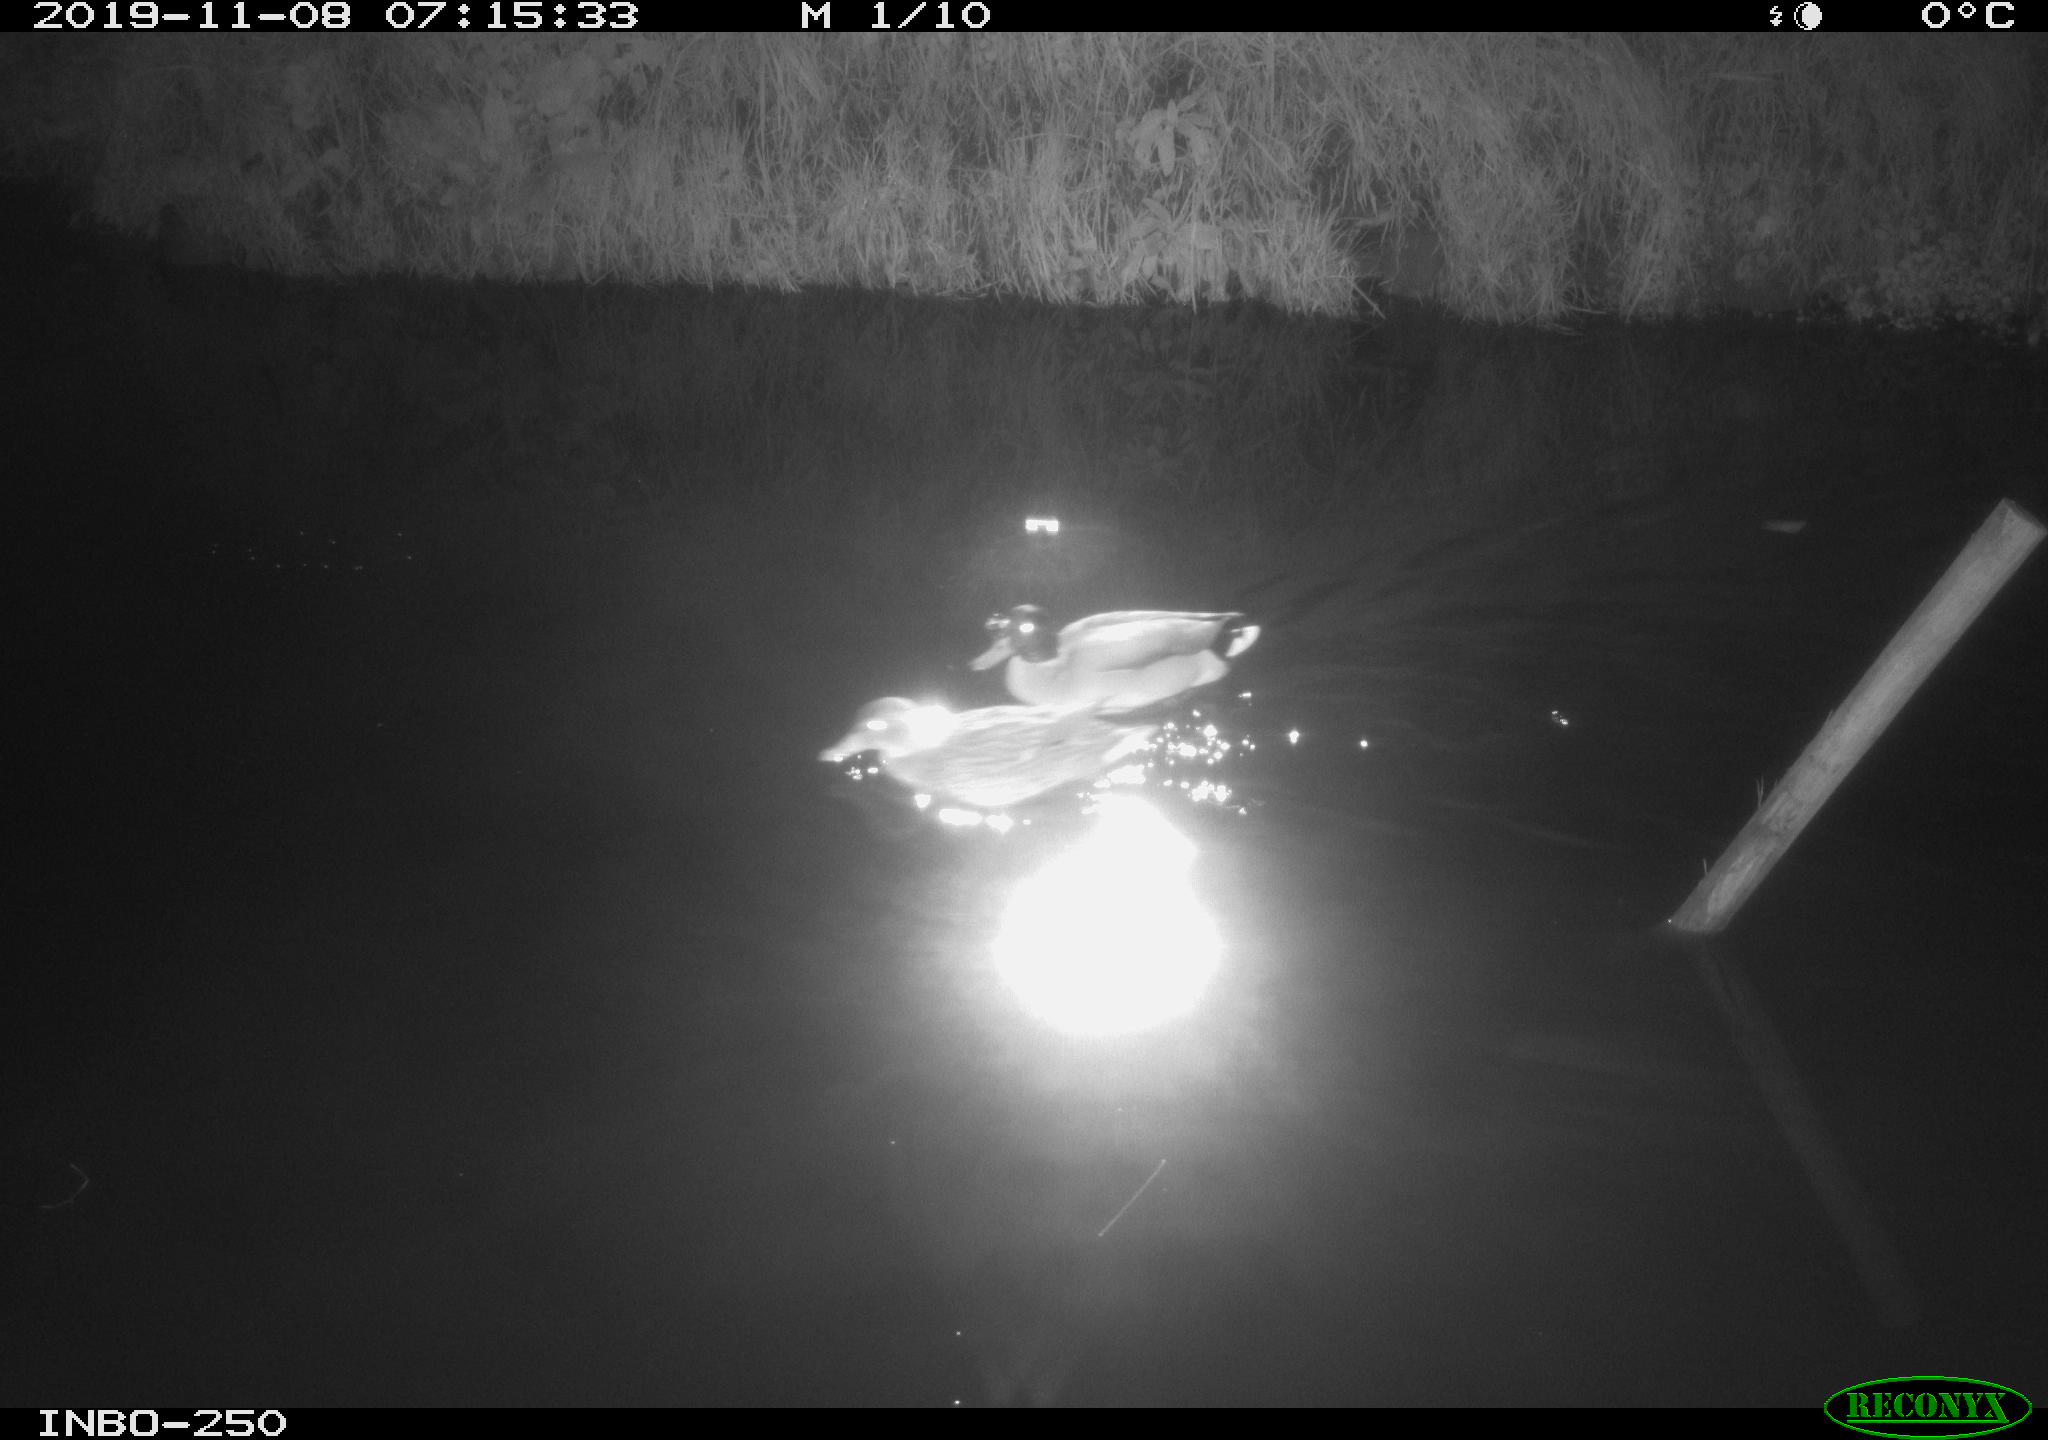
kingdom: Animalia
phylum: Chordata
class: Aves
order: Anseriformes
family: Anatidae
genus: Anas
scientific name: Anas platyrhynchos
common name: Mallard
